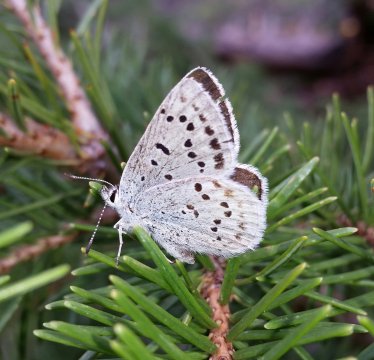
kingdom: Animalia
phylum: Arthropoda
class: Insecta
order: Lepidoptera
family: Lycaenidae
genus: Lycaena
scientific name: Lycaena heteronea
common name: Blue Copper
